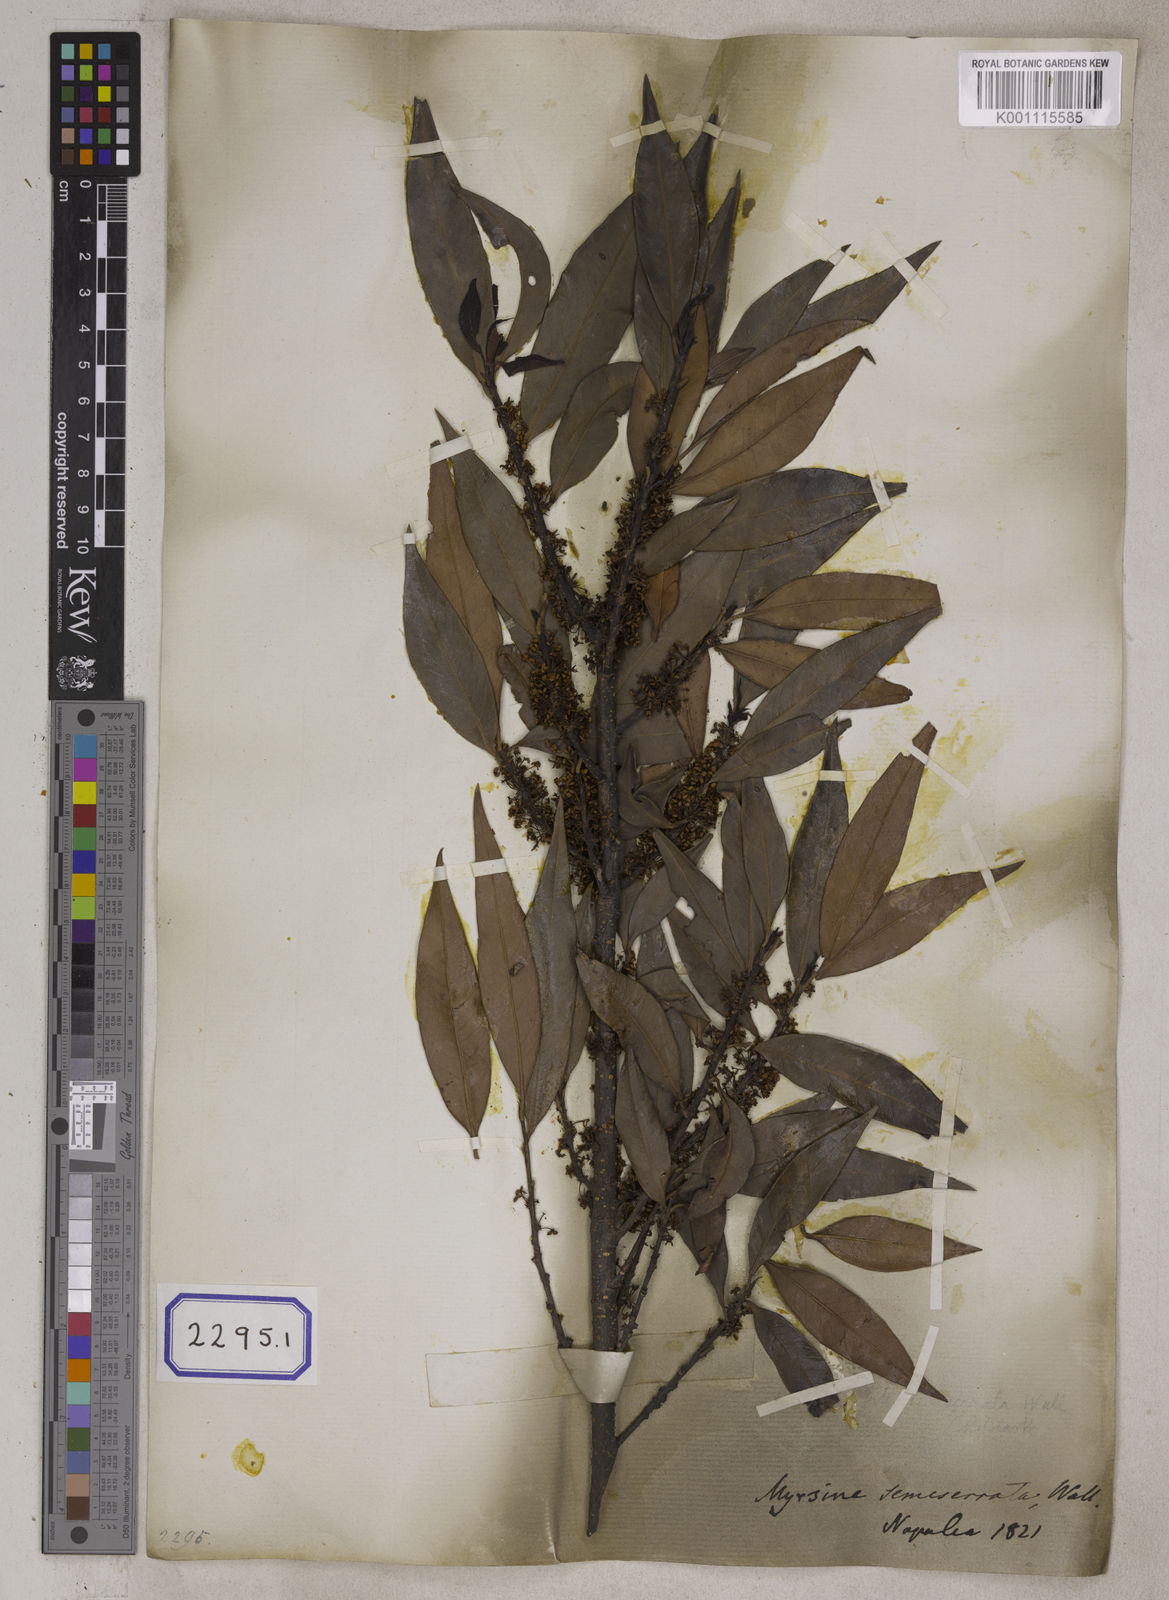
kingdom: Plantae
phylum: Tracheophyta
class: Magnoliopsida
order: Ericales
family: Primulaceae
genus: Myrsine
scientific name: Myrsine semiserrata
